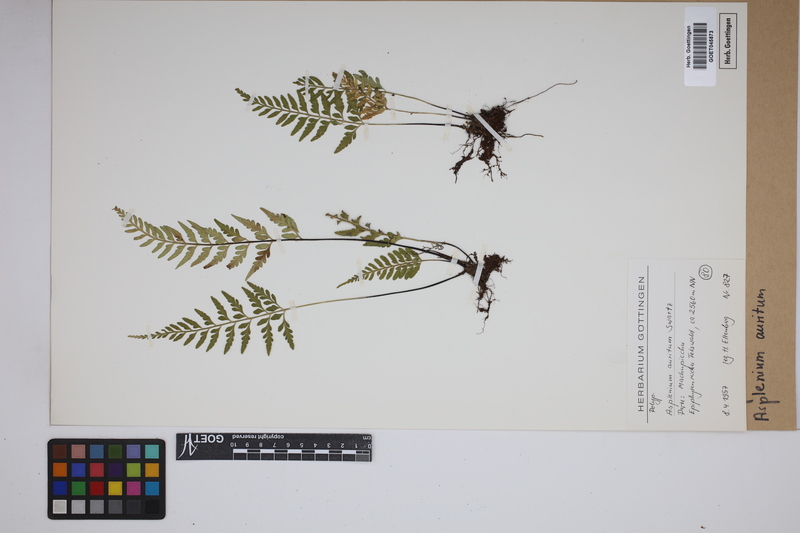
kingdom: Plantae
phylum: Tracheophyta
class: Polypodiopsida
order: Polypodiales
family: Aspleniaceae
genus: Asplenium
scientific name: Asplenium auritum
